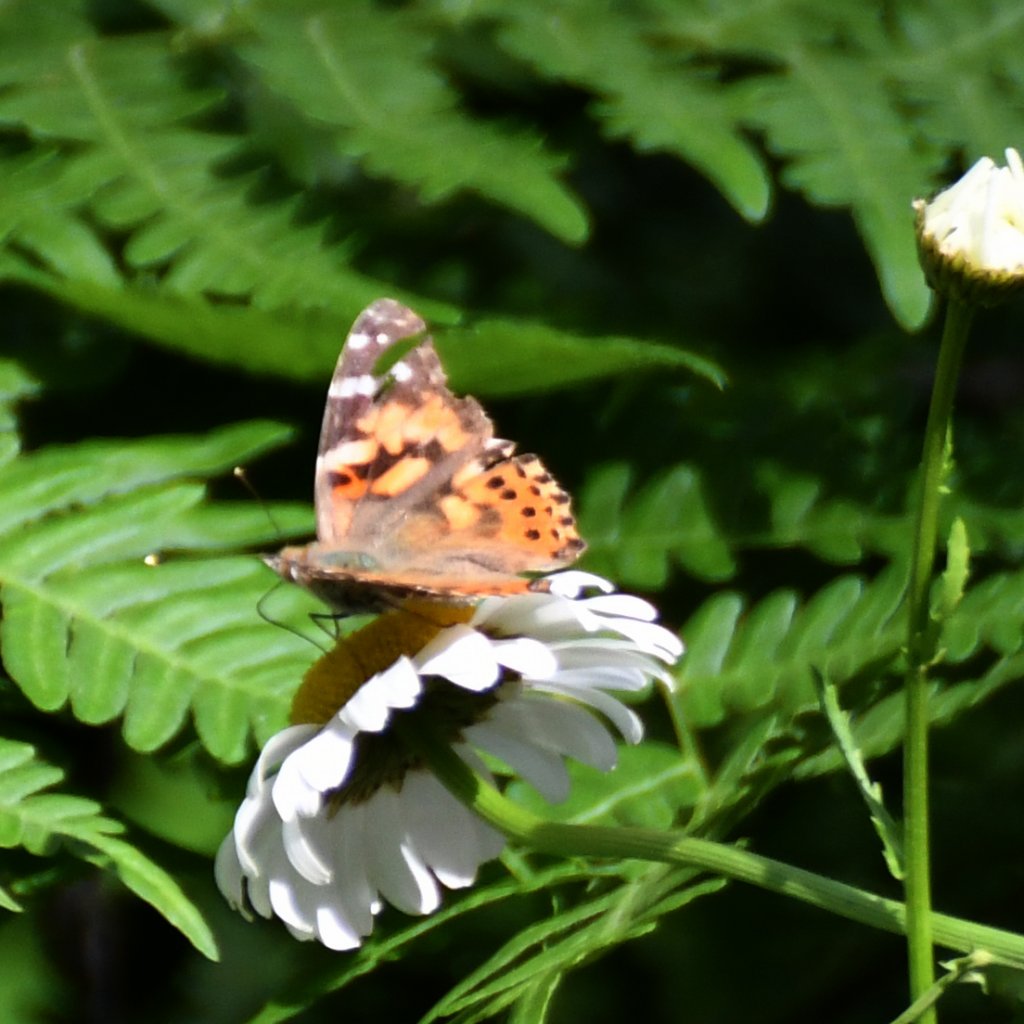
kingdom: Animalia
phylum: Arthropoda
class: Insecta
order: Lepidoptera
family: Nymphalidae
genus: Vanessa
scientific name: Vanessa cardui
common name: Painted Lady
